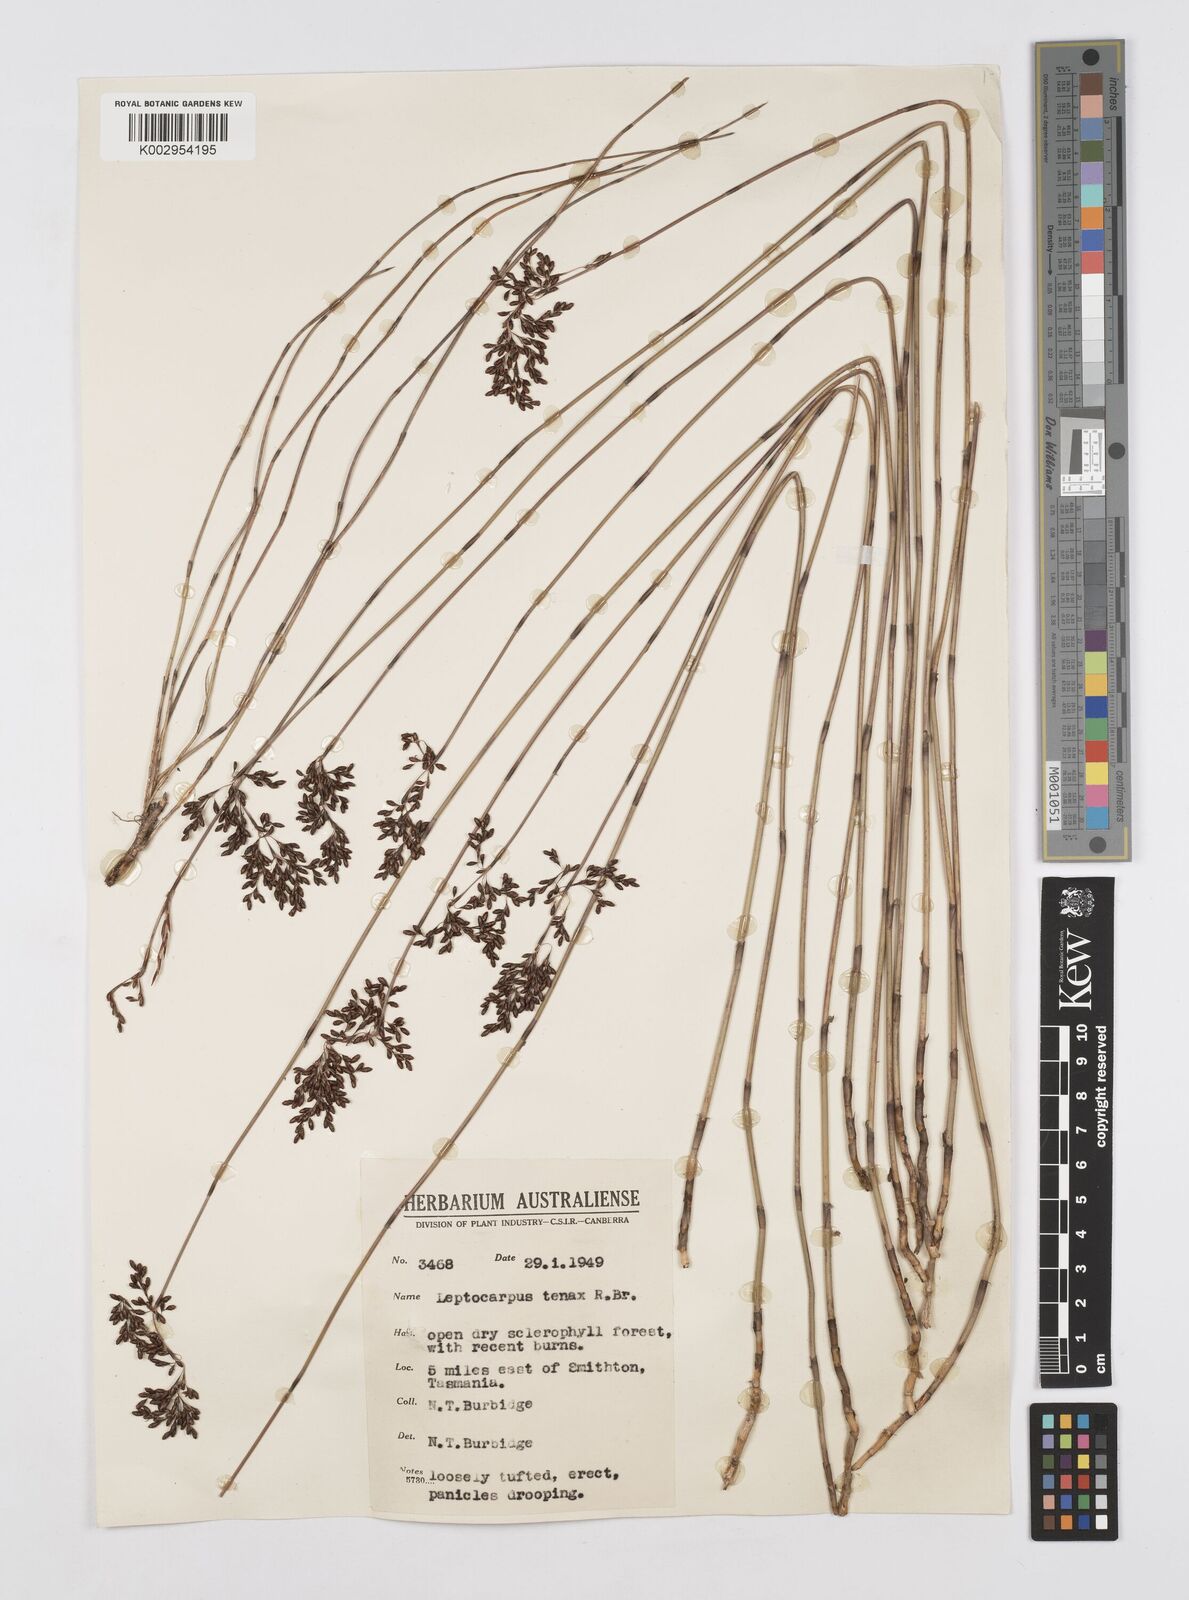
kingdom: Plantae
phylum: Tracheophyta
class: Liliopsida
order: Poales
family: Restionaceae
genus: Leptocarpus
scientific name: Leptocarpus tenax
